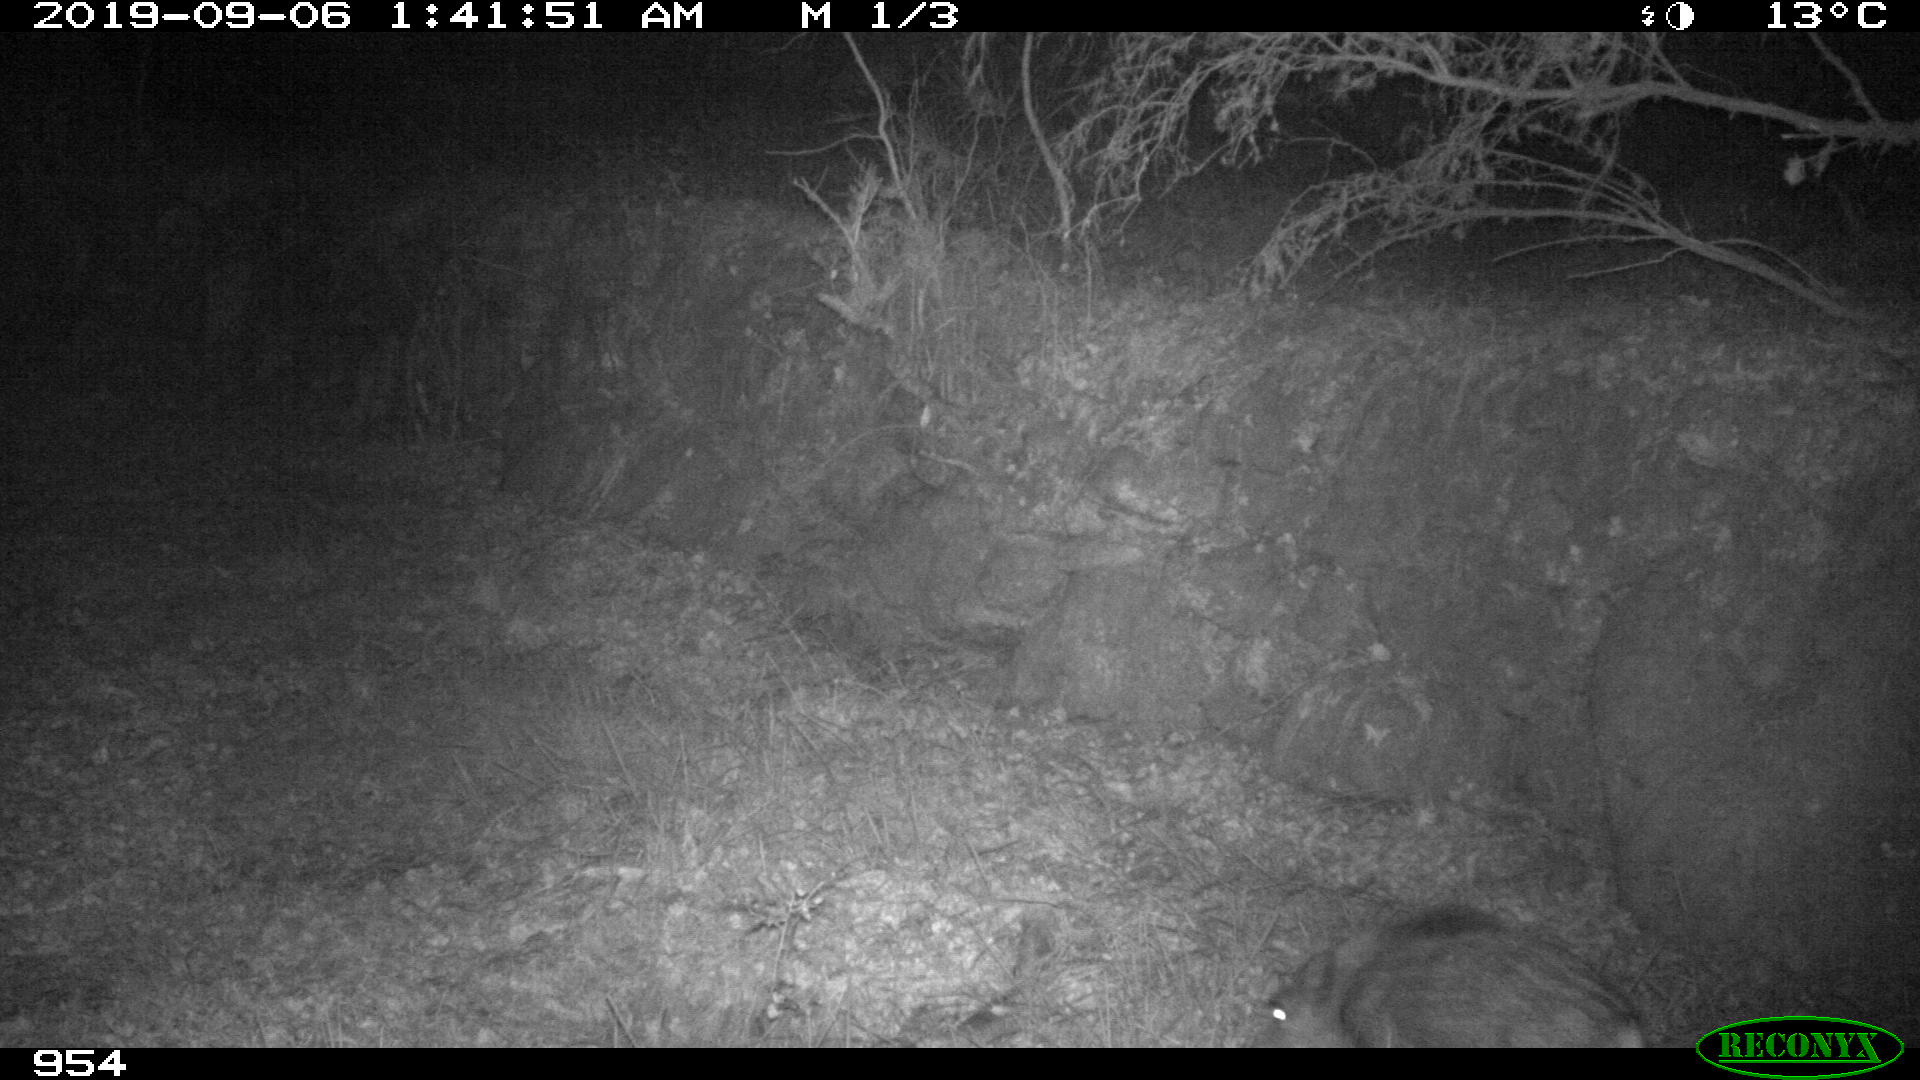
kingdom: Animalia
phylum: Chordata
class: Mammalia
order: Artiodactyla
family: Suidae
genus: Sus
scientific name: Sus scrofa
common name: Wild boar
